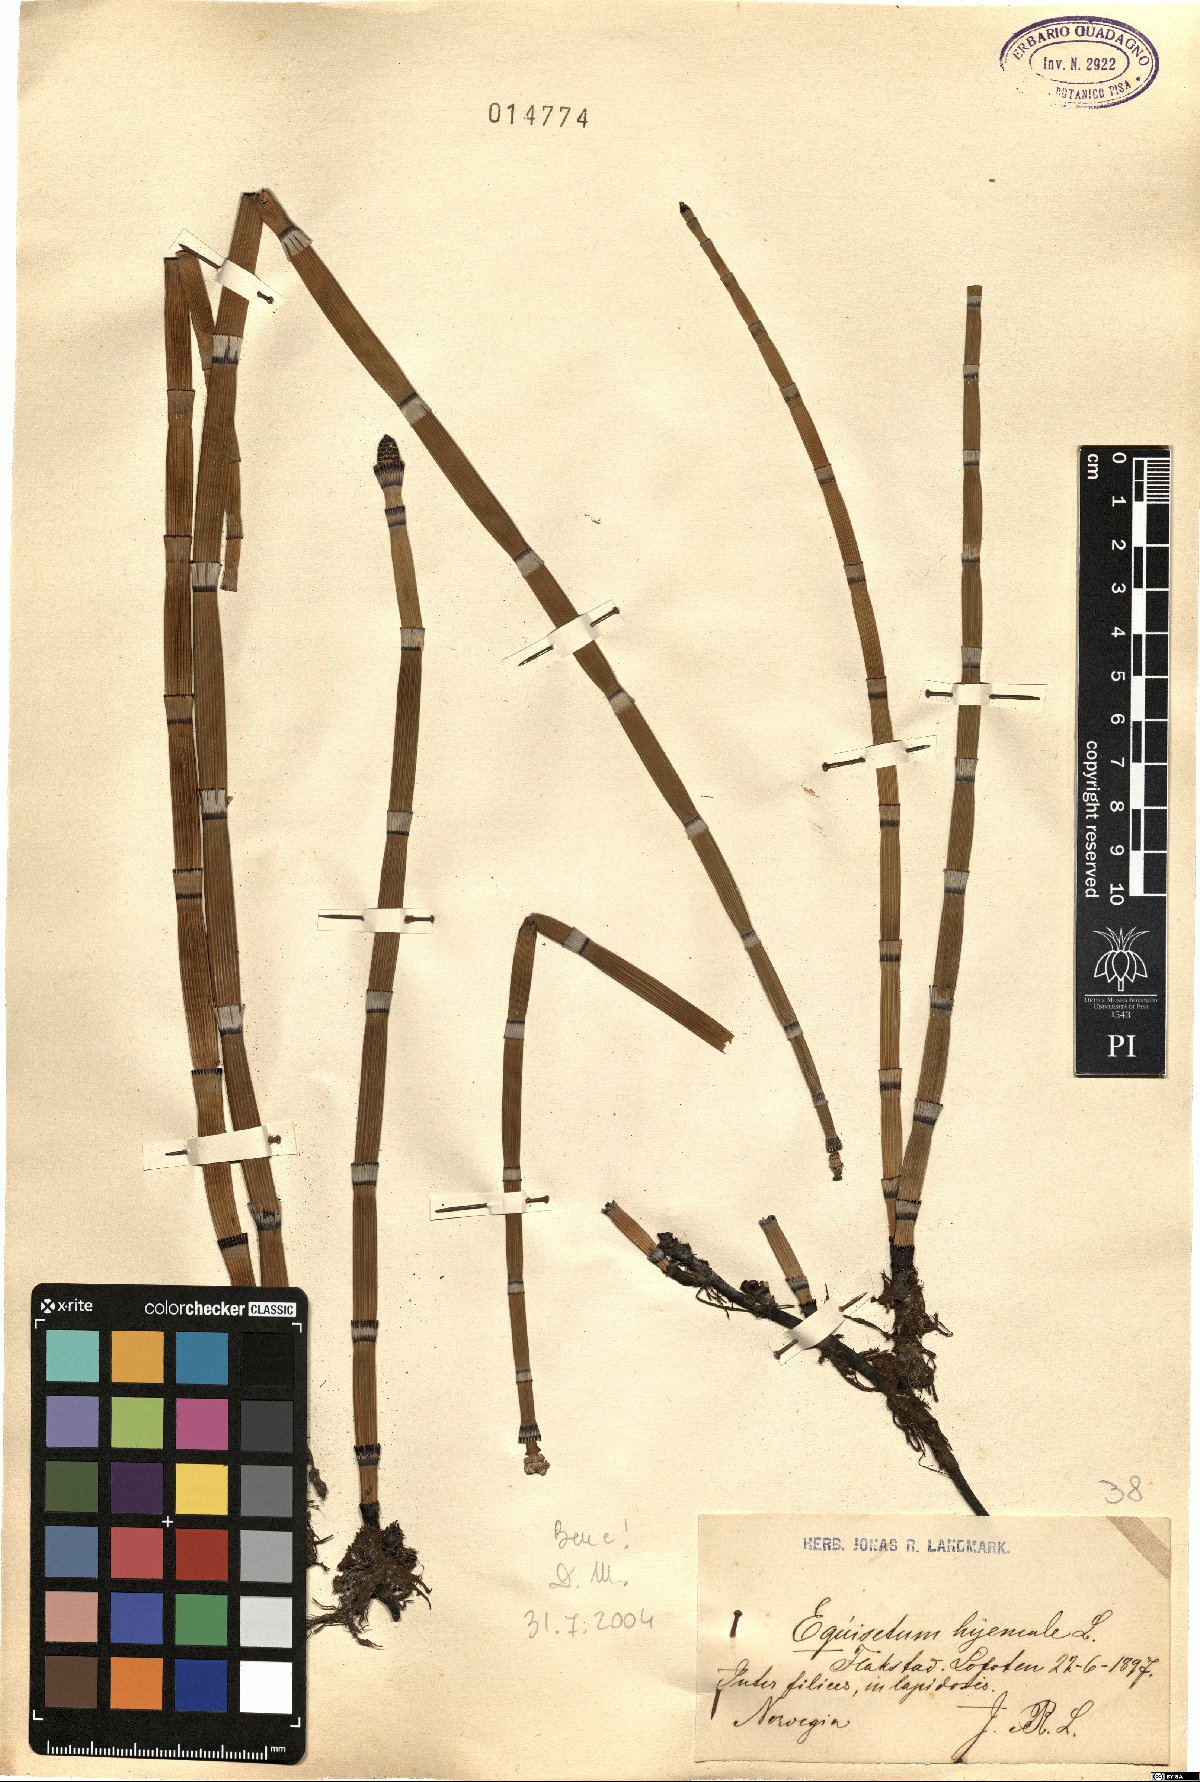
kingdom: Plantae
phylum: Tracheophyta
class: Polypodiopsida
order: Equisetales
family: Equisetaceae
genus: Equisetum
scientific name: Equisetum hyemale
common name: Rough horsetail
